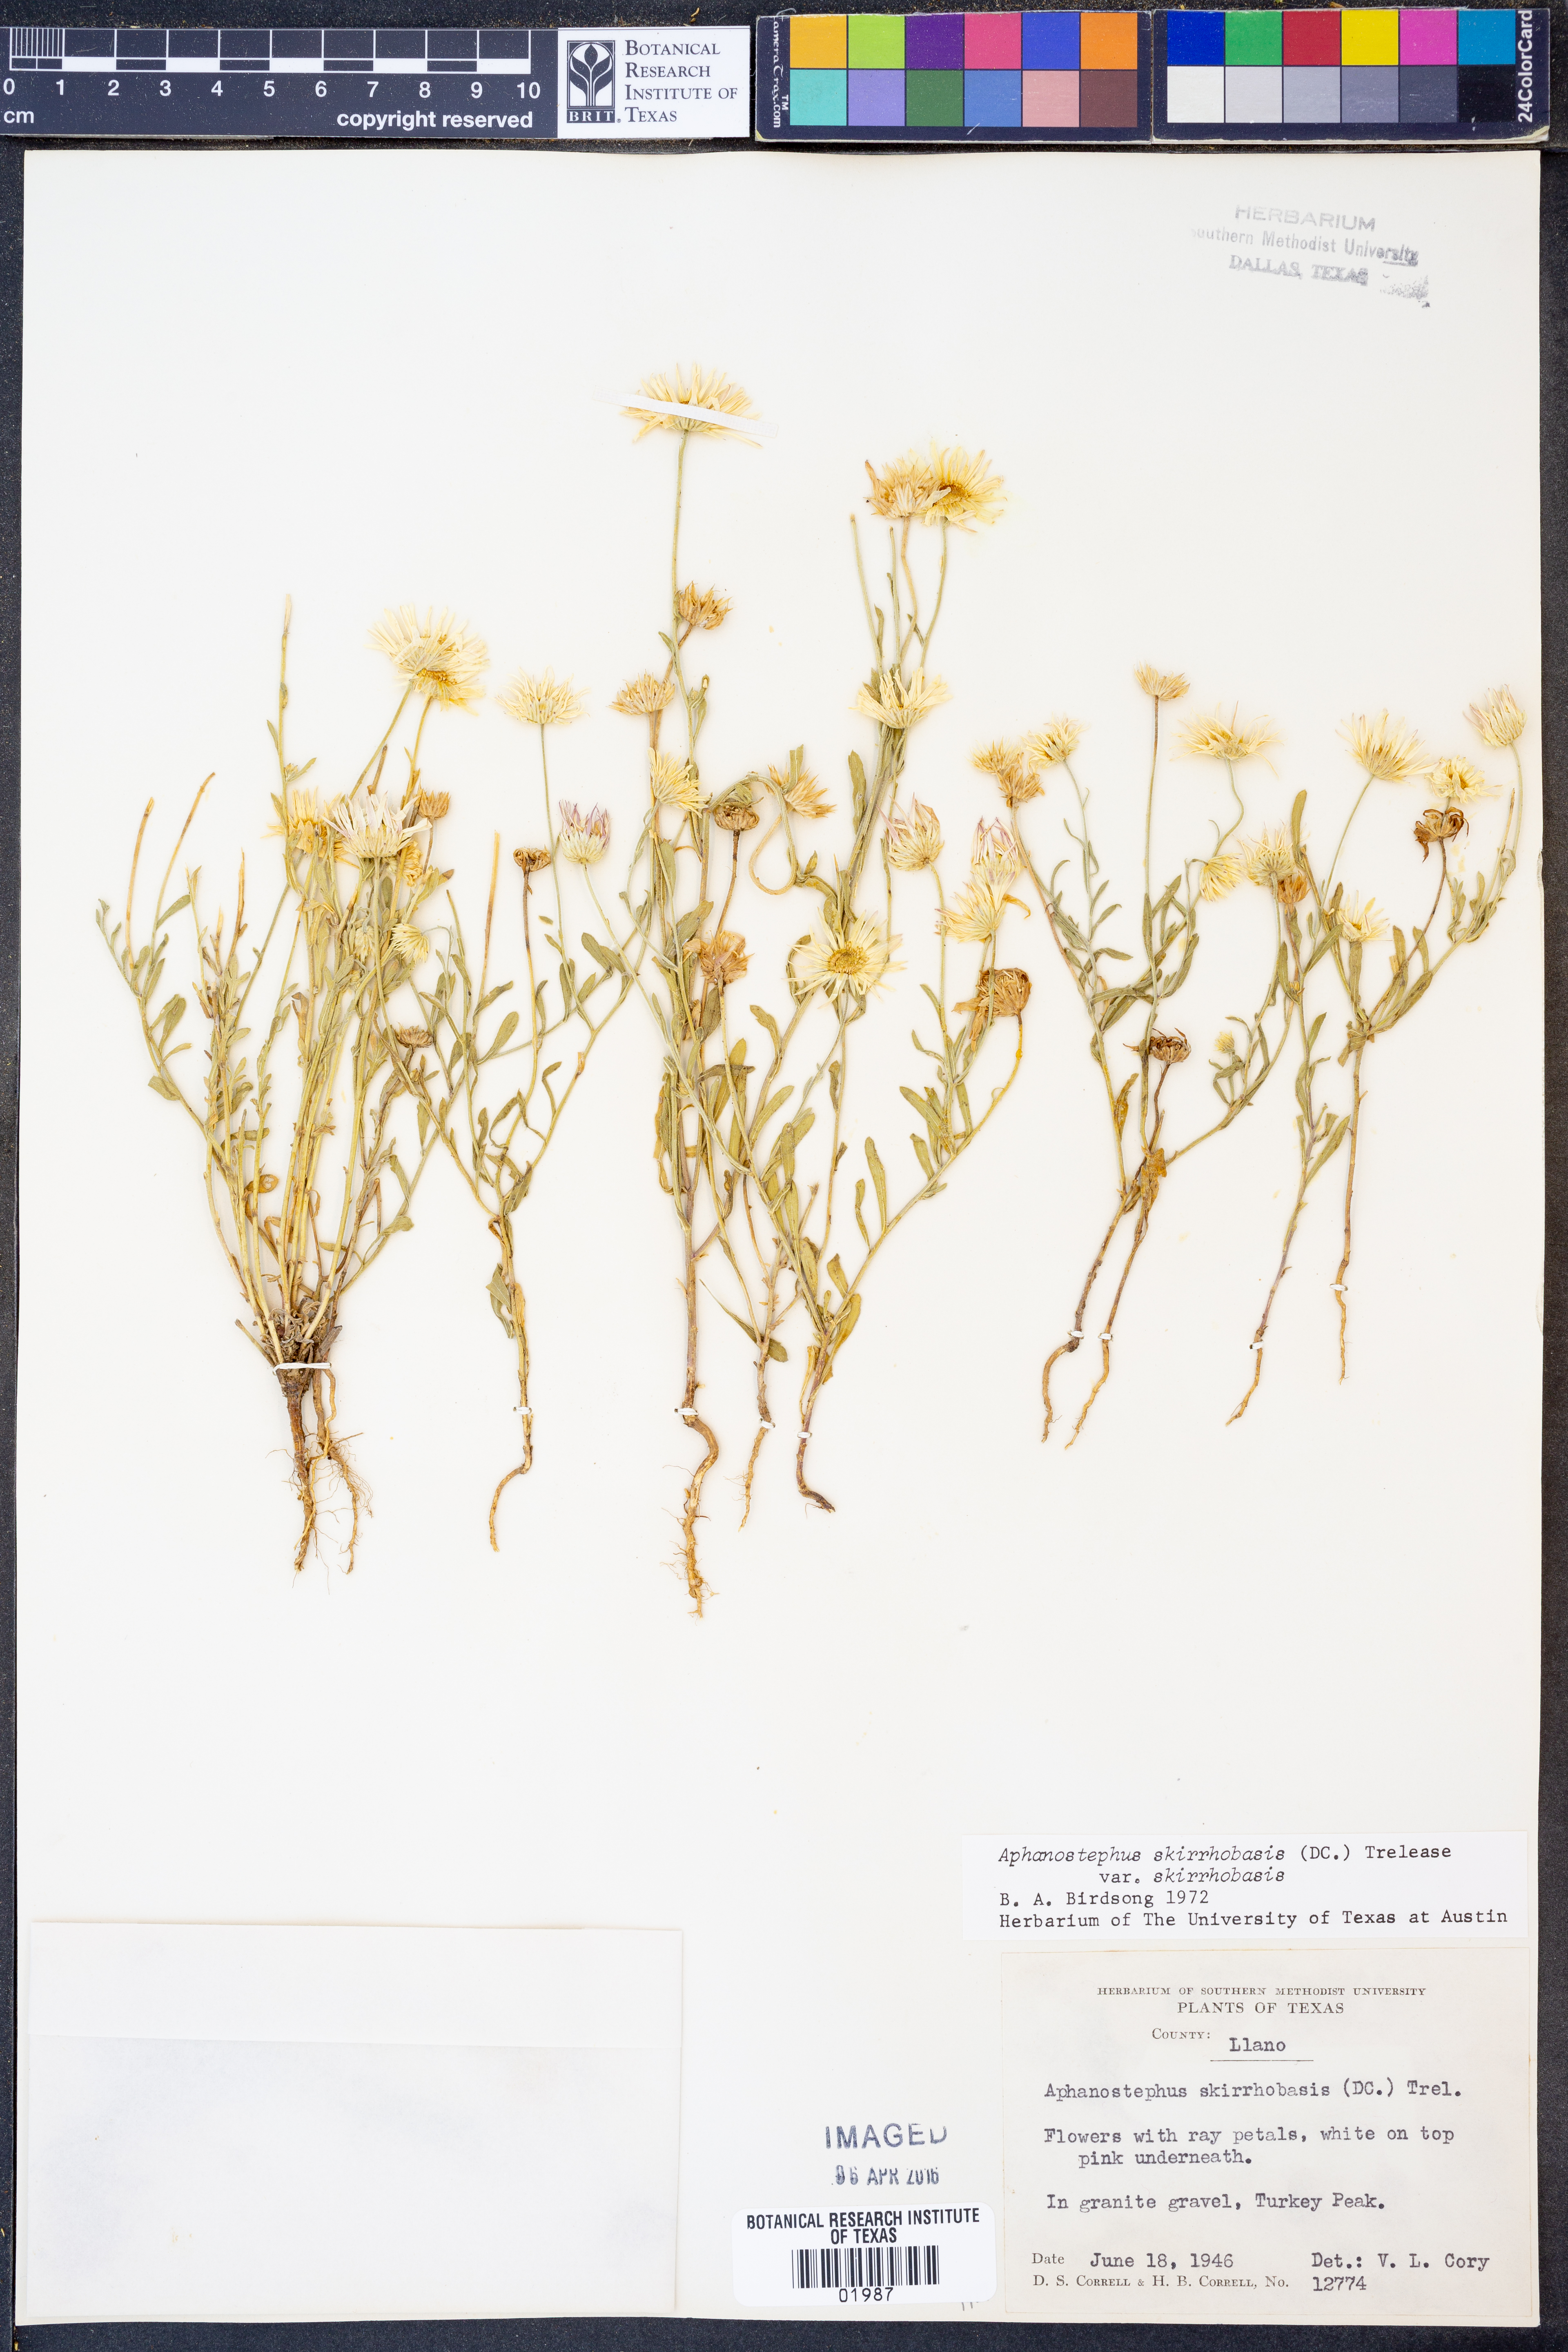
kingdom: Plantae
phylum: Tracheophyta
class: Magnoliopsida
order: Asterales
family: Asteraceae
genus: Aphanostephus
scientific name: Aphanostephus skirrhobasis
